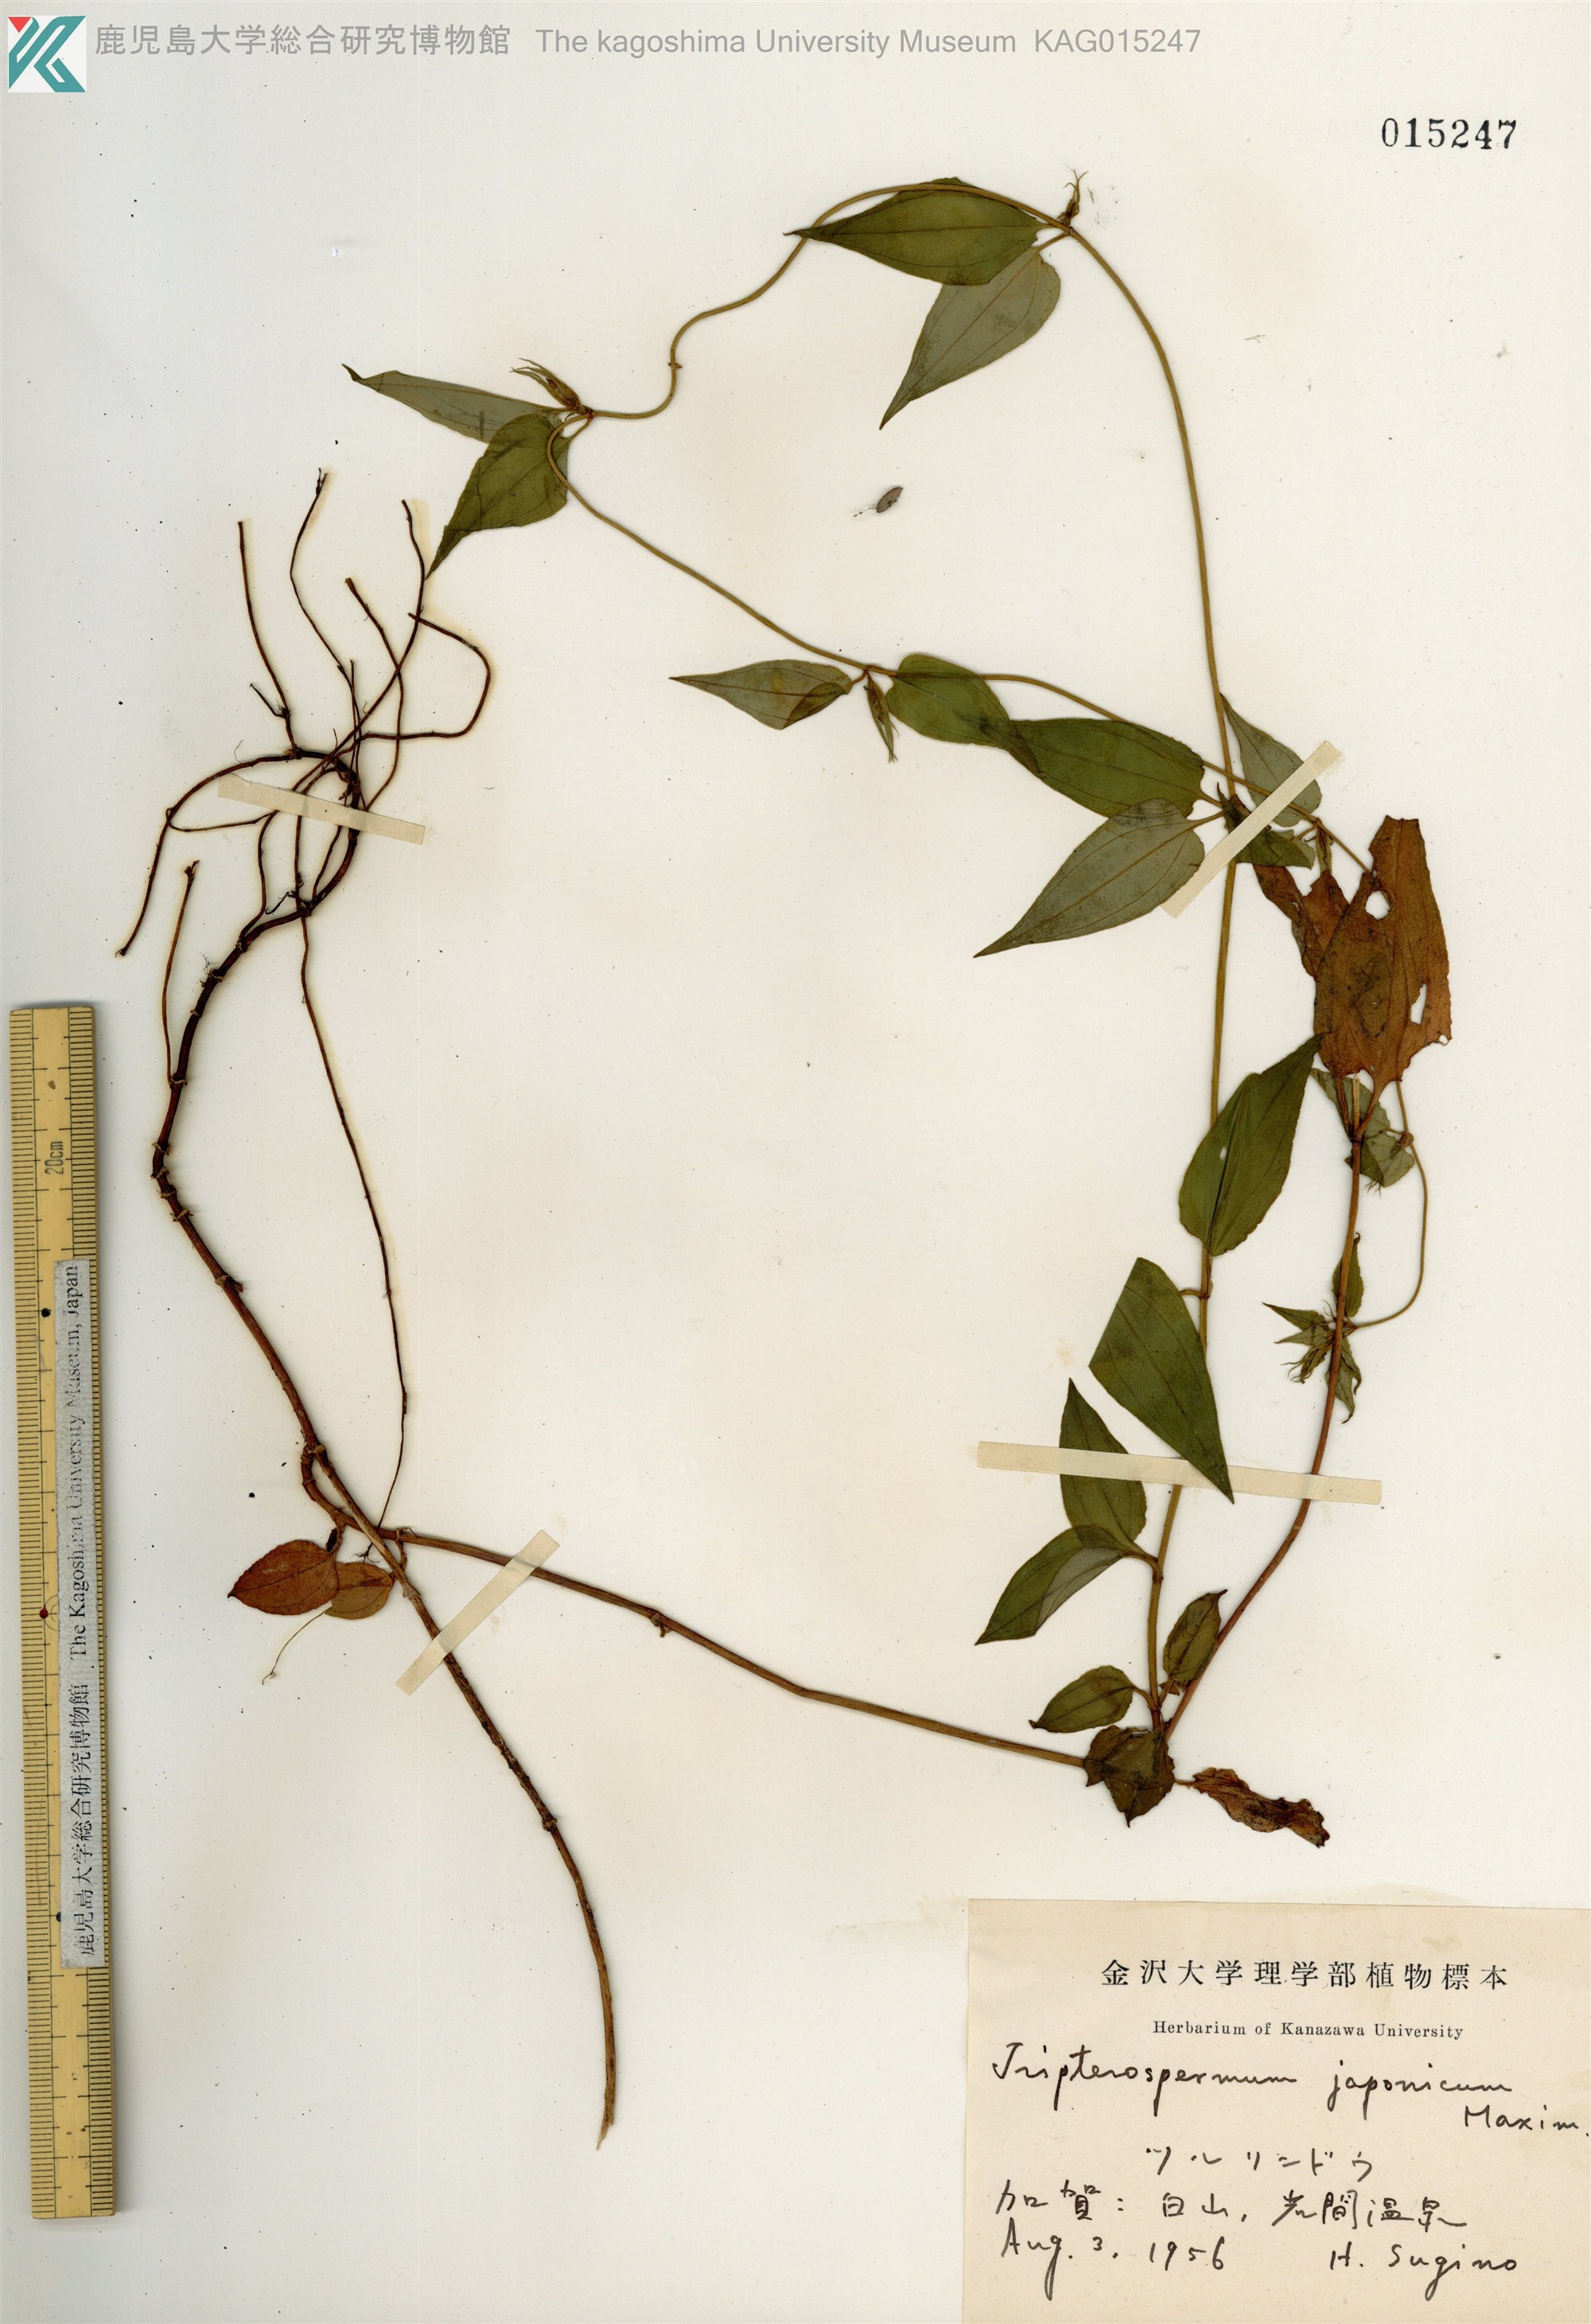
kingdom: Plantae
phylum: Tracheophyta
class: Magnoliopsida
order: Gentianales
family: Gentianaceae
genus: Tripterospermum
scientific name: Tripterospermum trinervium
